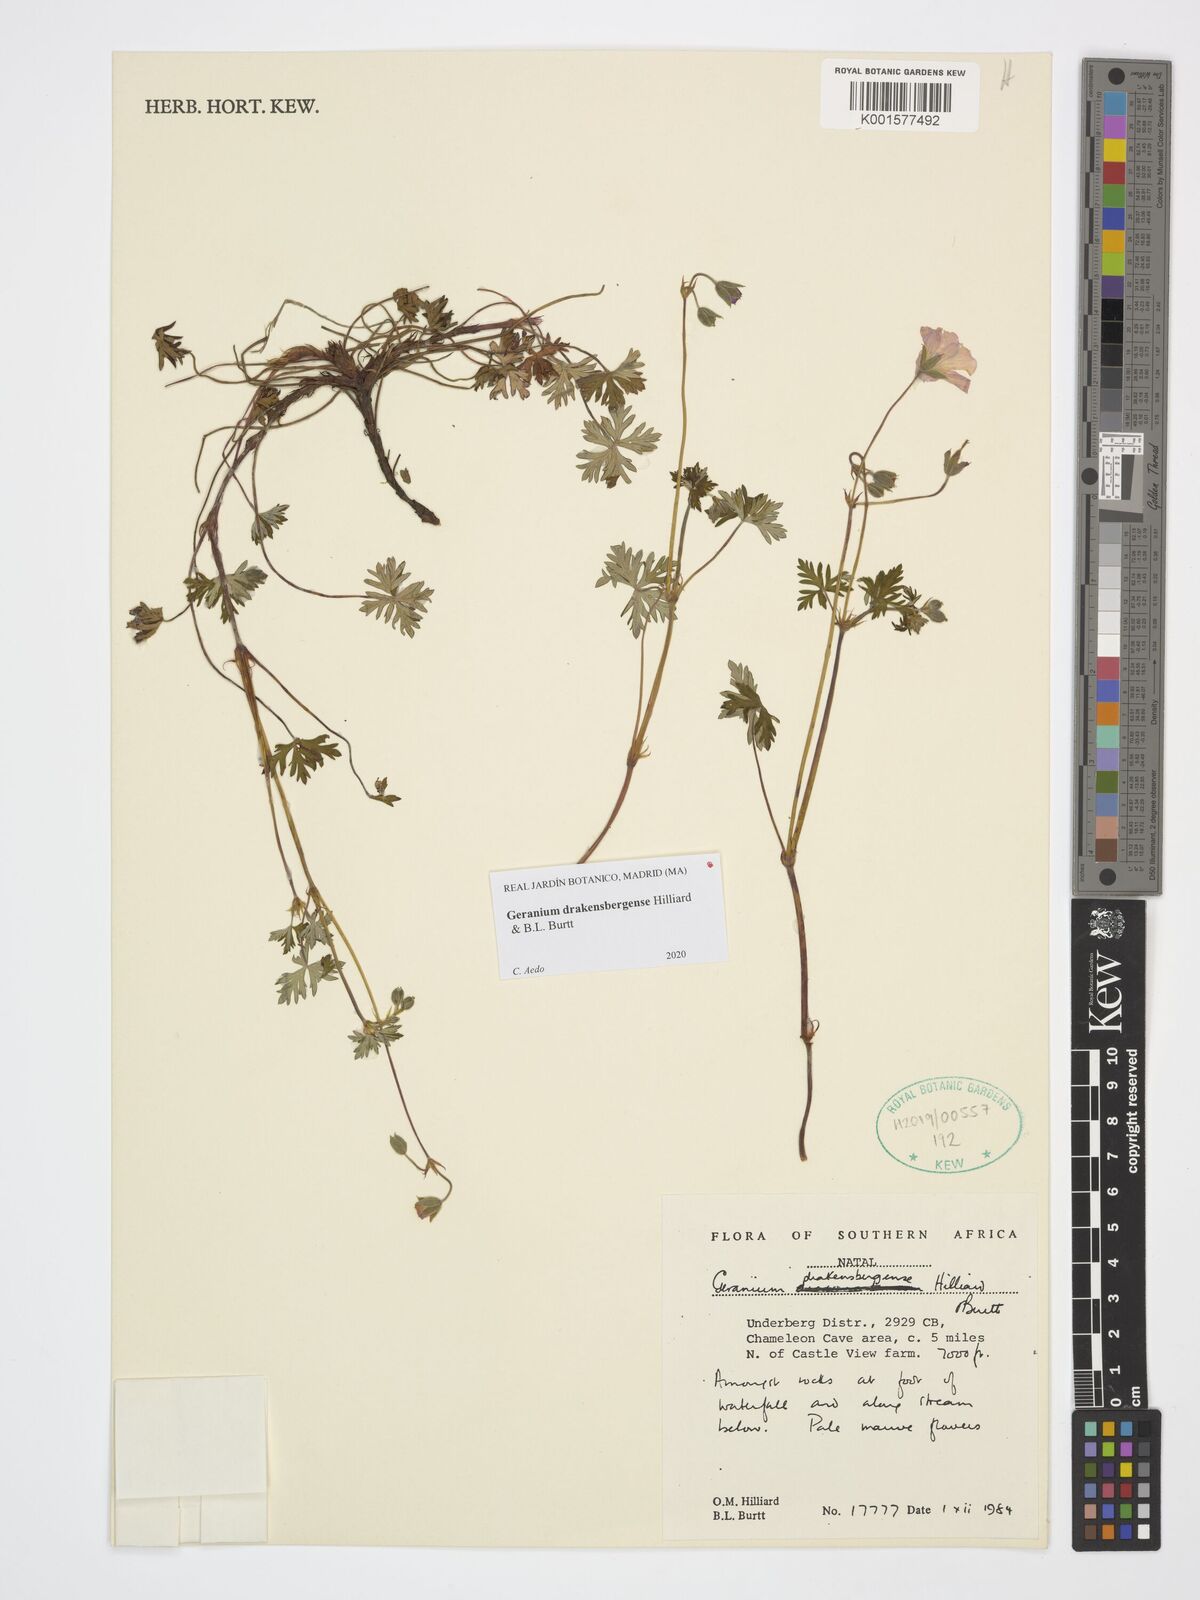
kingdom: Plantae
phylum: Tracheophyta
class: Magnoliopsida
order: Geraniales
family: Geraniaceae
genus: Geranium
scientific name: Geranium drakensbergense
